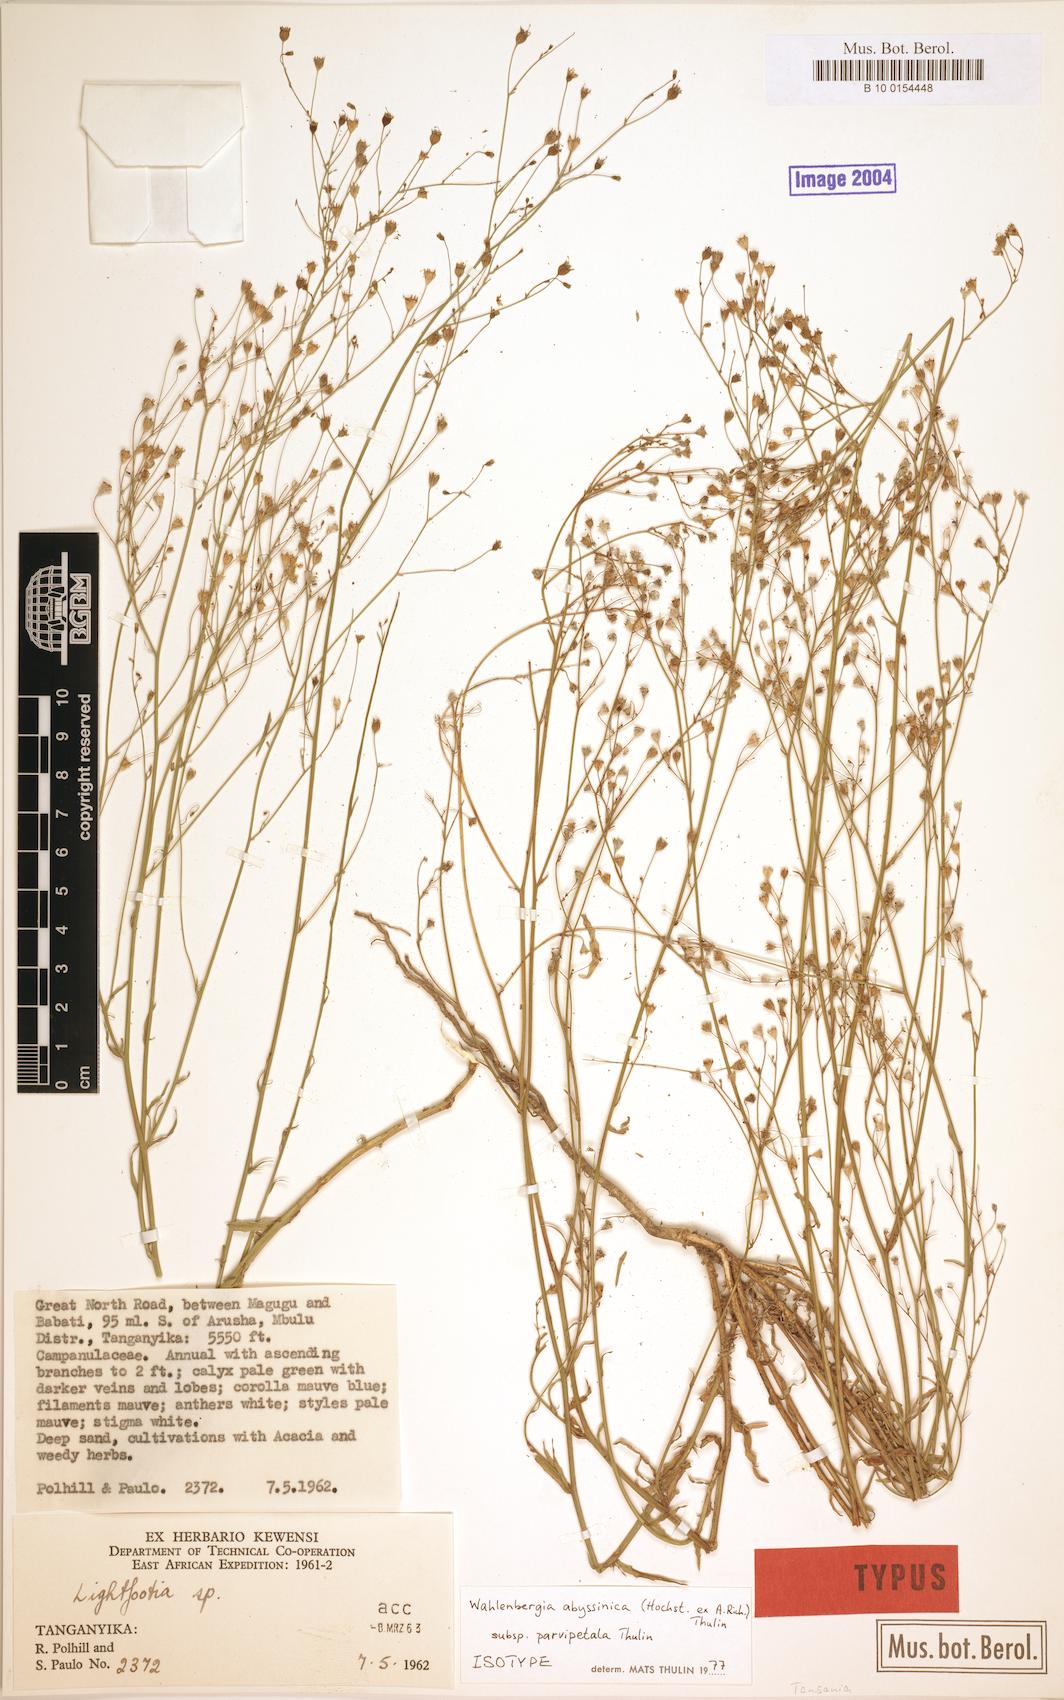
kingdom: Plantae
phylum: Tracheophyta
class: Magnoliopsida
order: Asterales
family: Campanulaceae
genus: Wahlenbergia
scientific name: Wahlenbergia abyssinica
